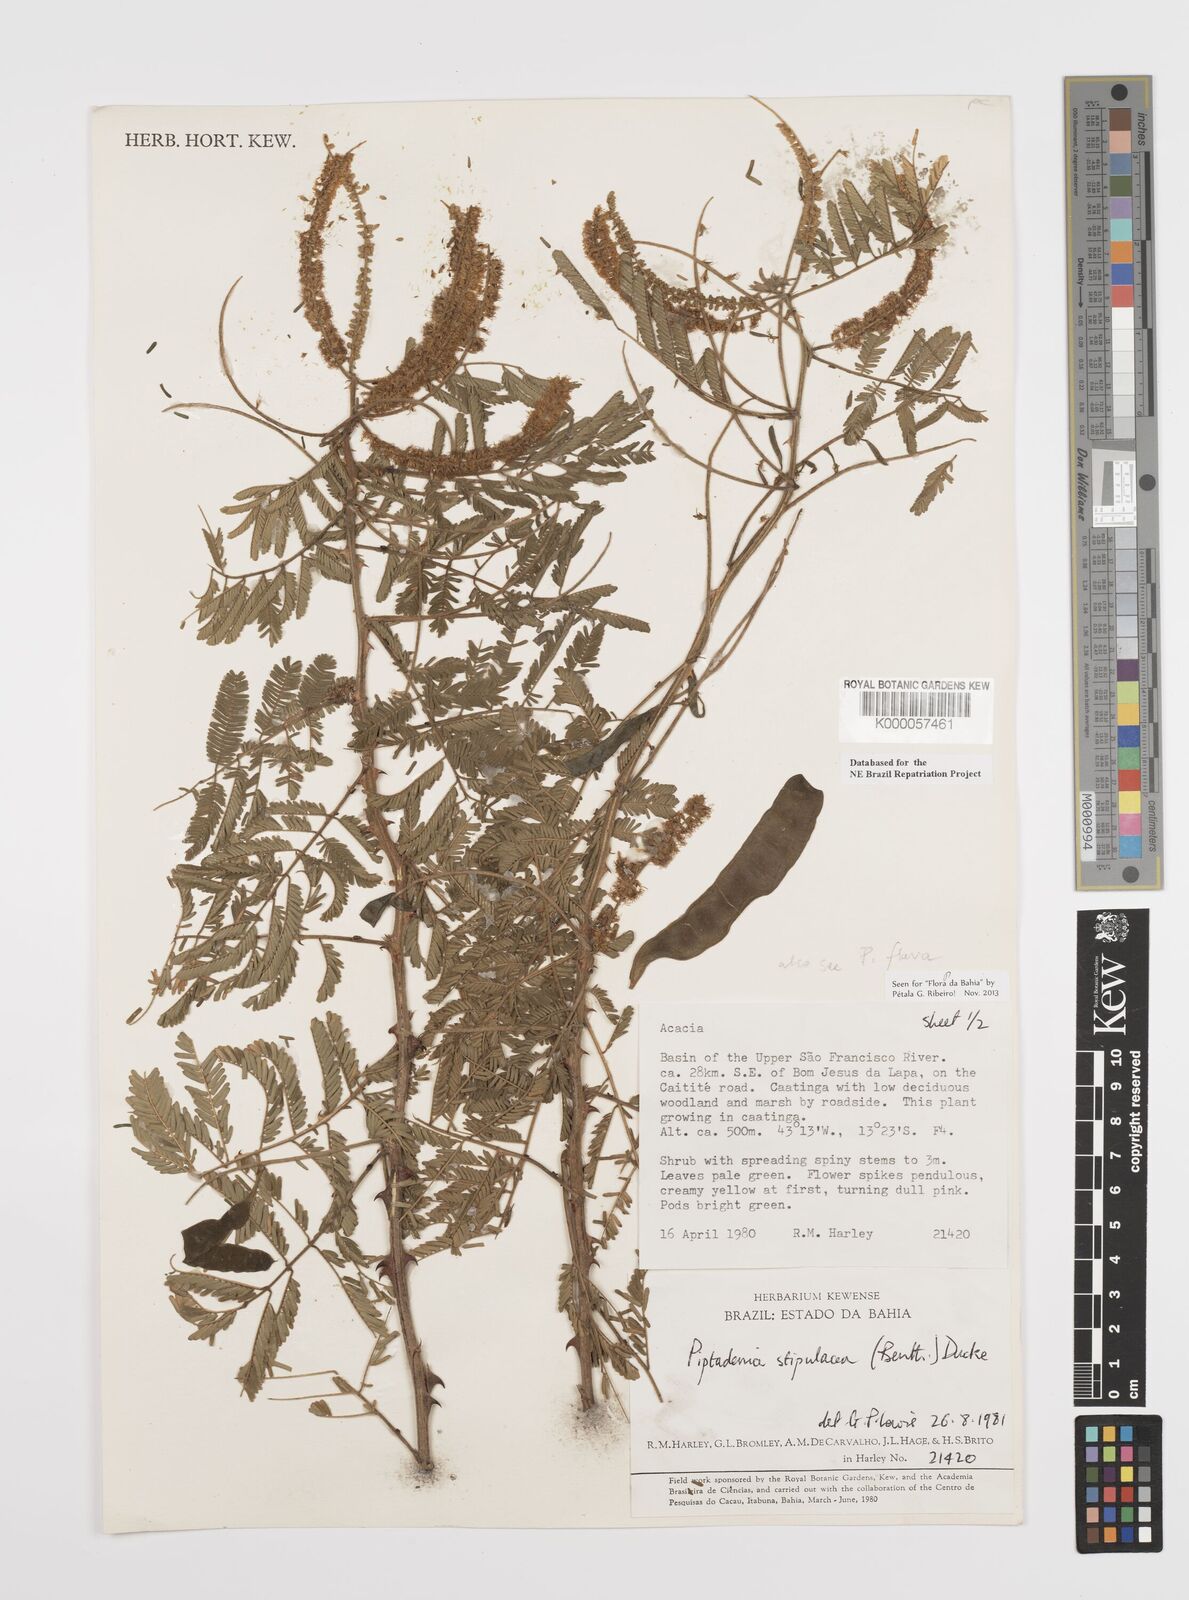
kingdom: Plantae
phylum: Tracheophyta
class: Magnoliopsida
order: Fabales
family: Fabaceae
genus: Piptadenia
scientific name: Piptadenia retusa
